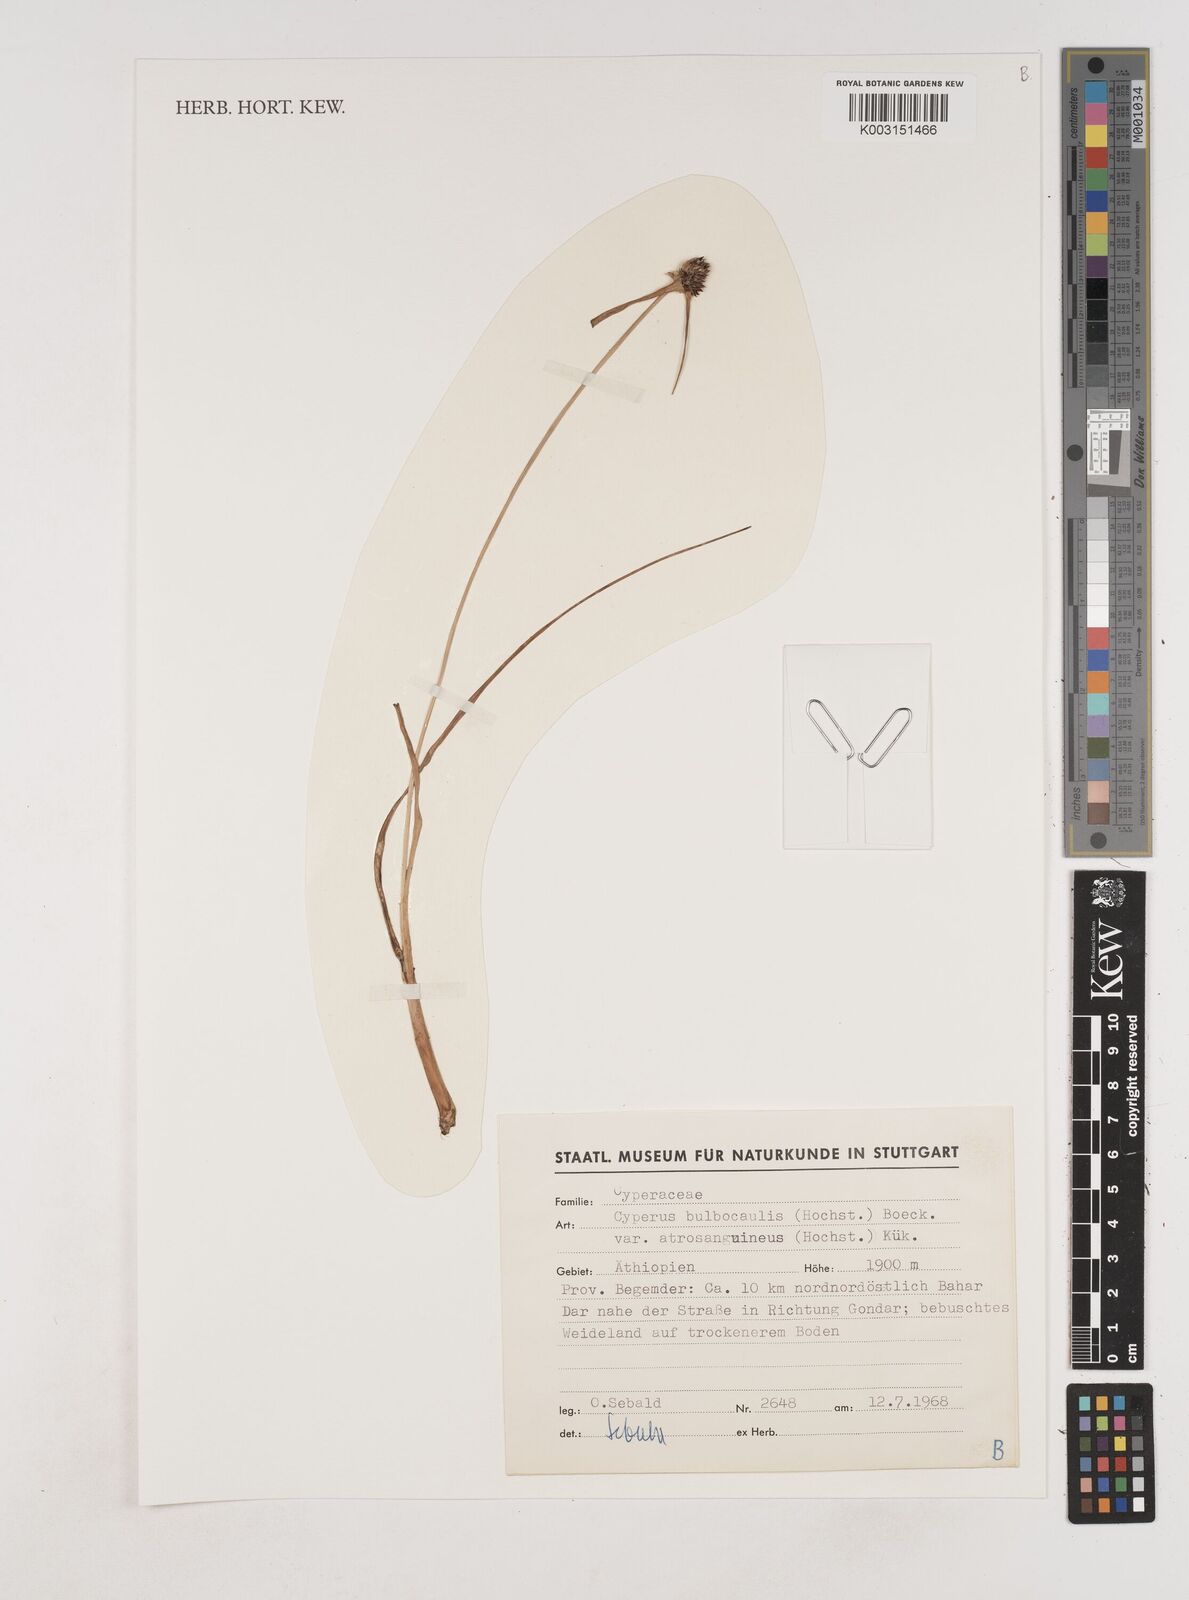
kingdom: Plantae
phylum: Tracheophyta
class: Liliopsida
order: Poales
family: Cyperaceae
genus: Cyperus
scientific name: Cyperus plateilema
